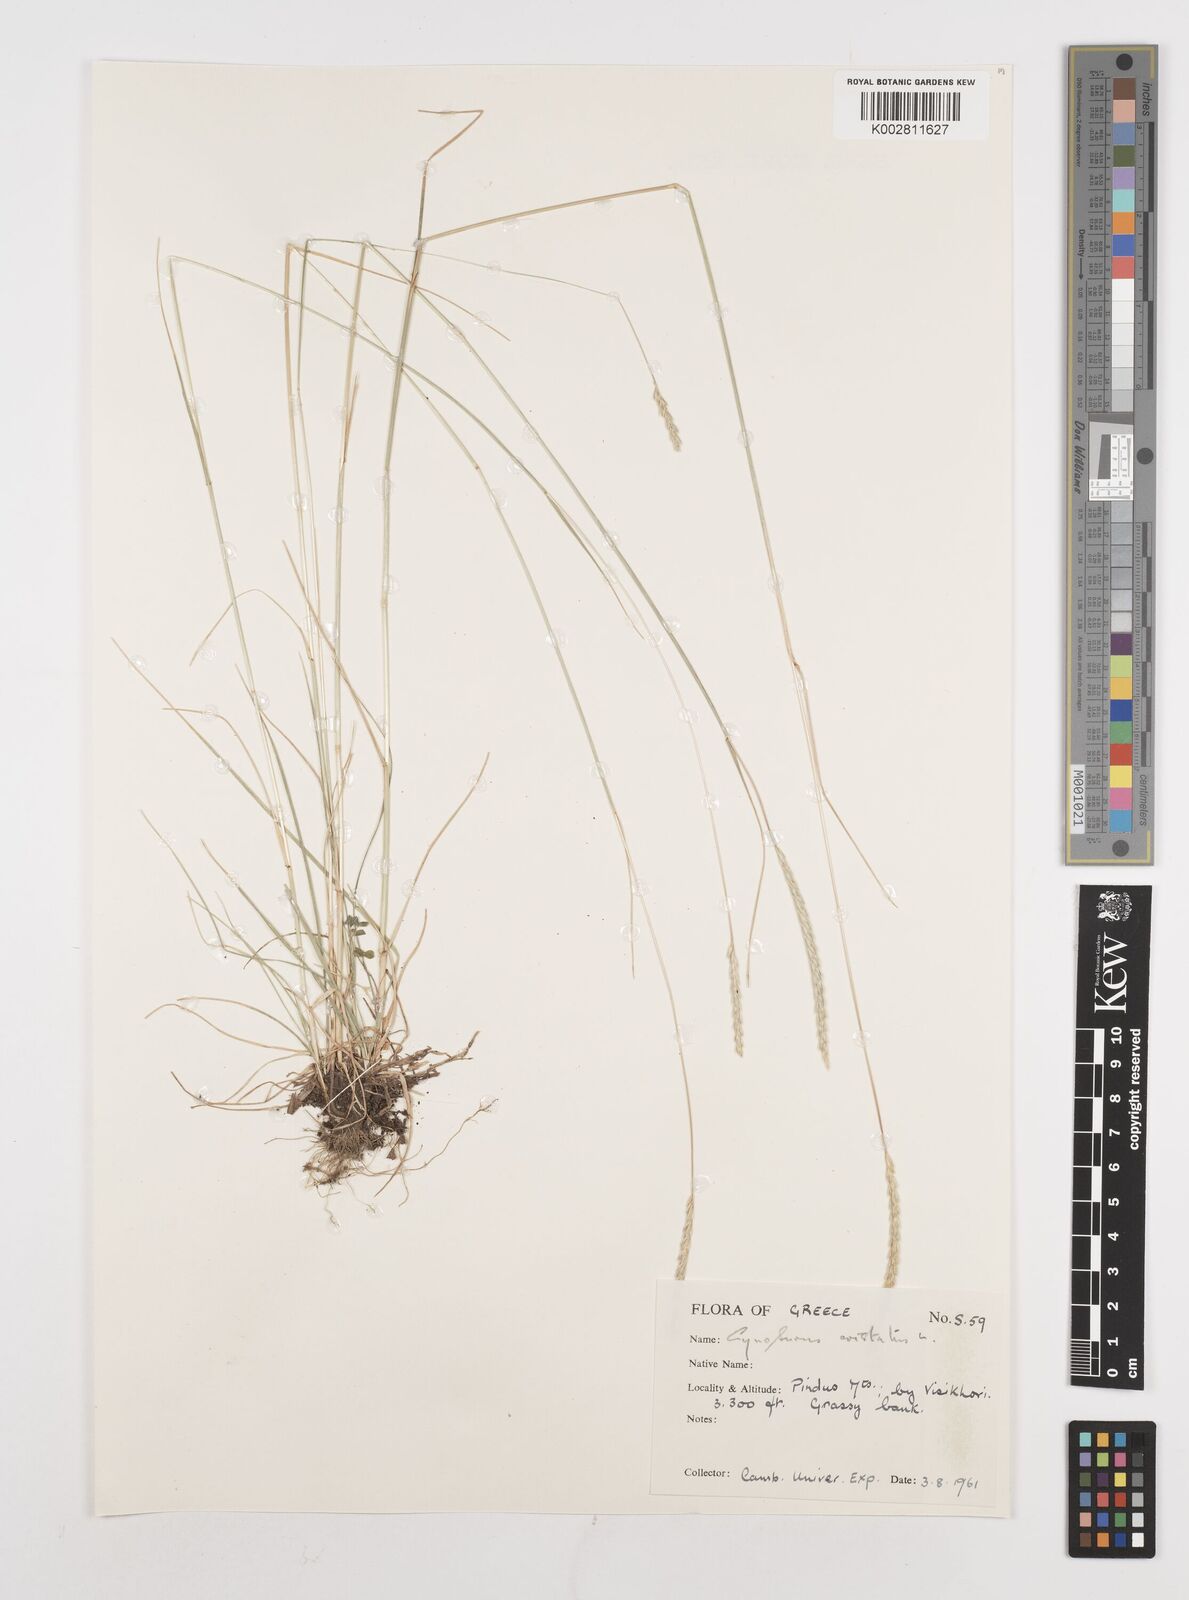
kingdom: Plantae
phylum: Tracheophyta
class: Liliopsida
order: Poales
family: Poaceae
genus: Cynosurus
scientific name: Cynosurus cristatus
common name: Crested dog's-tail
